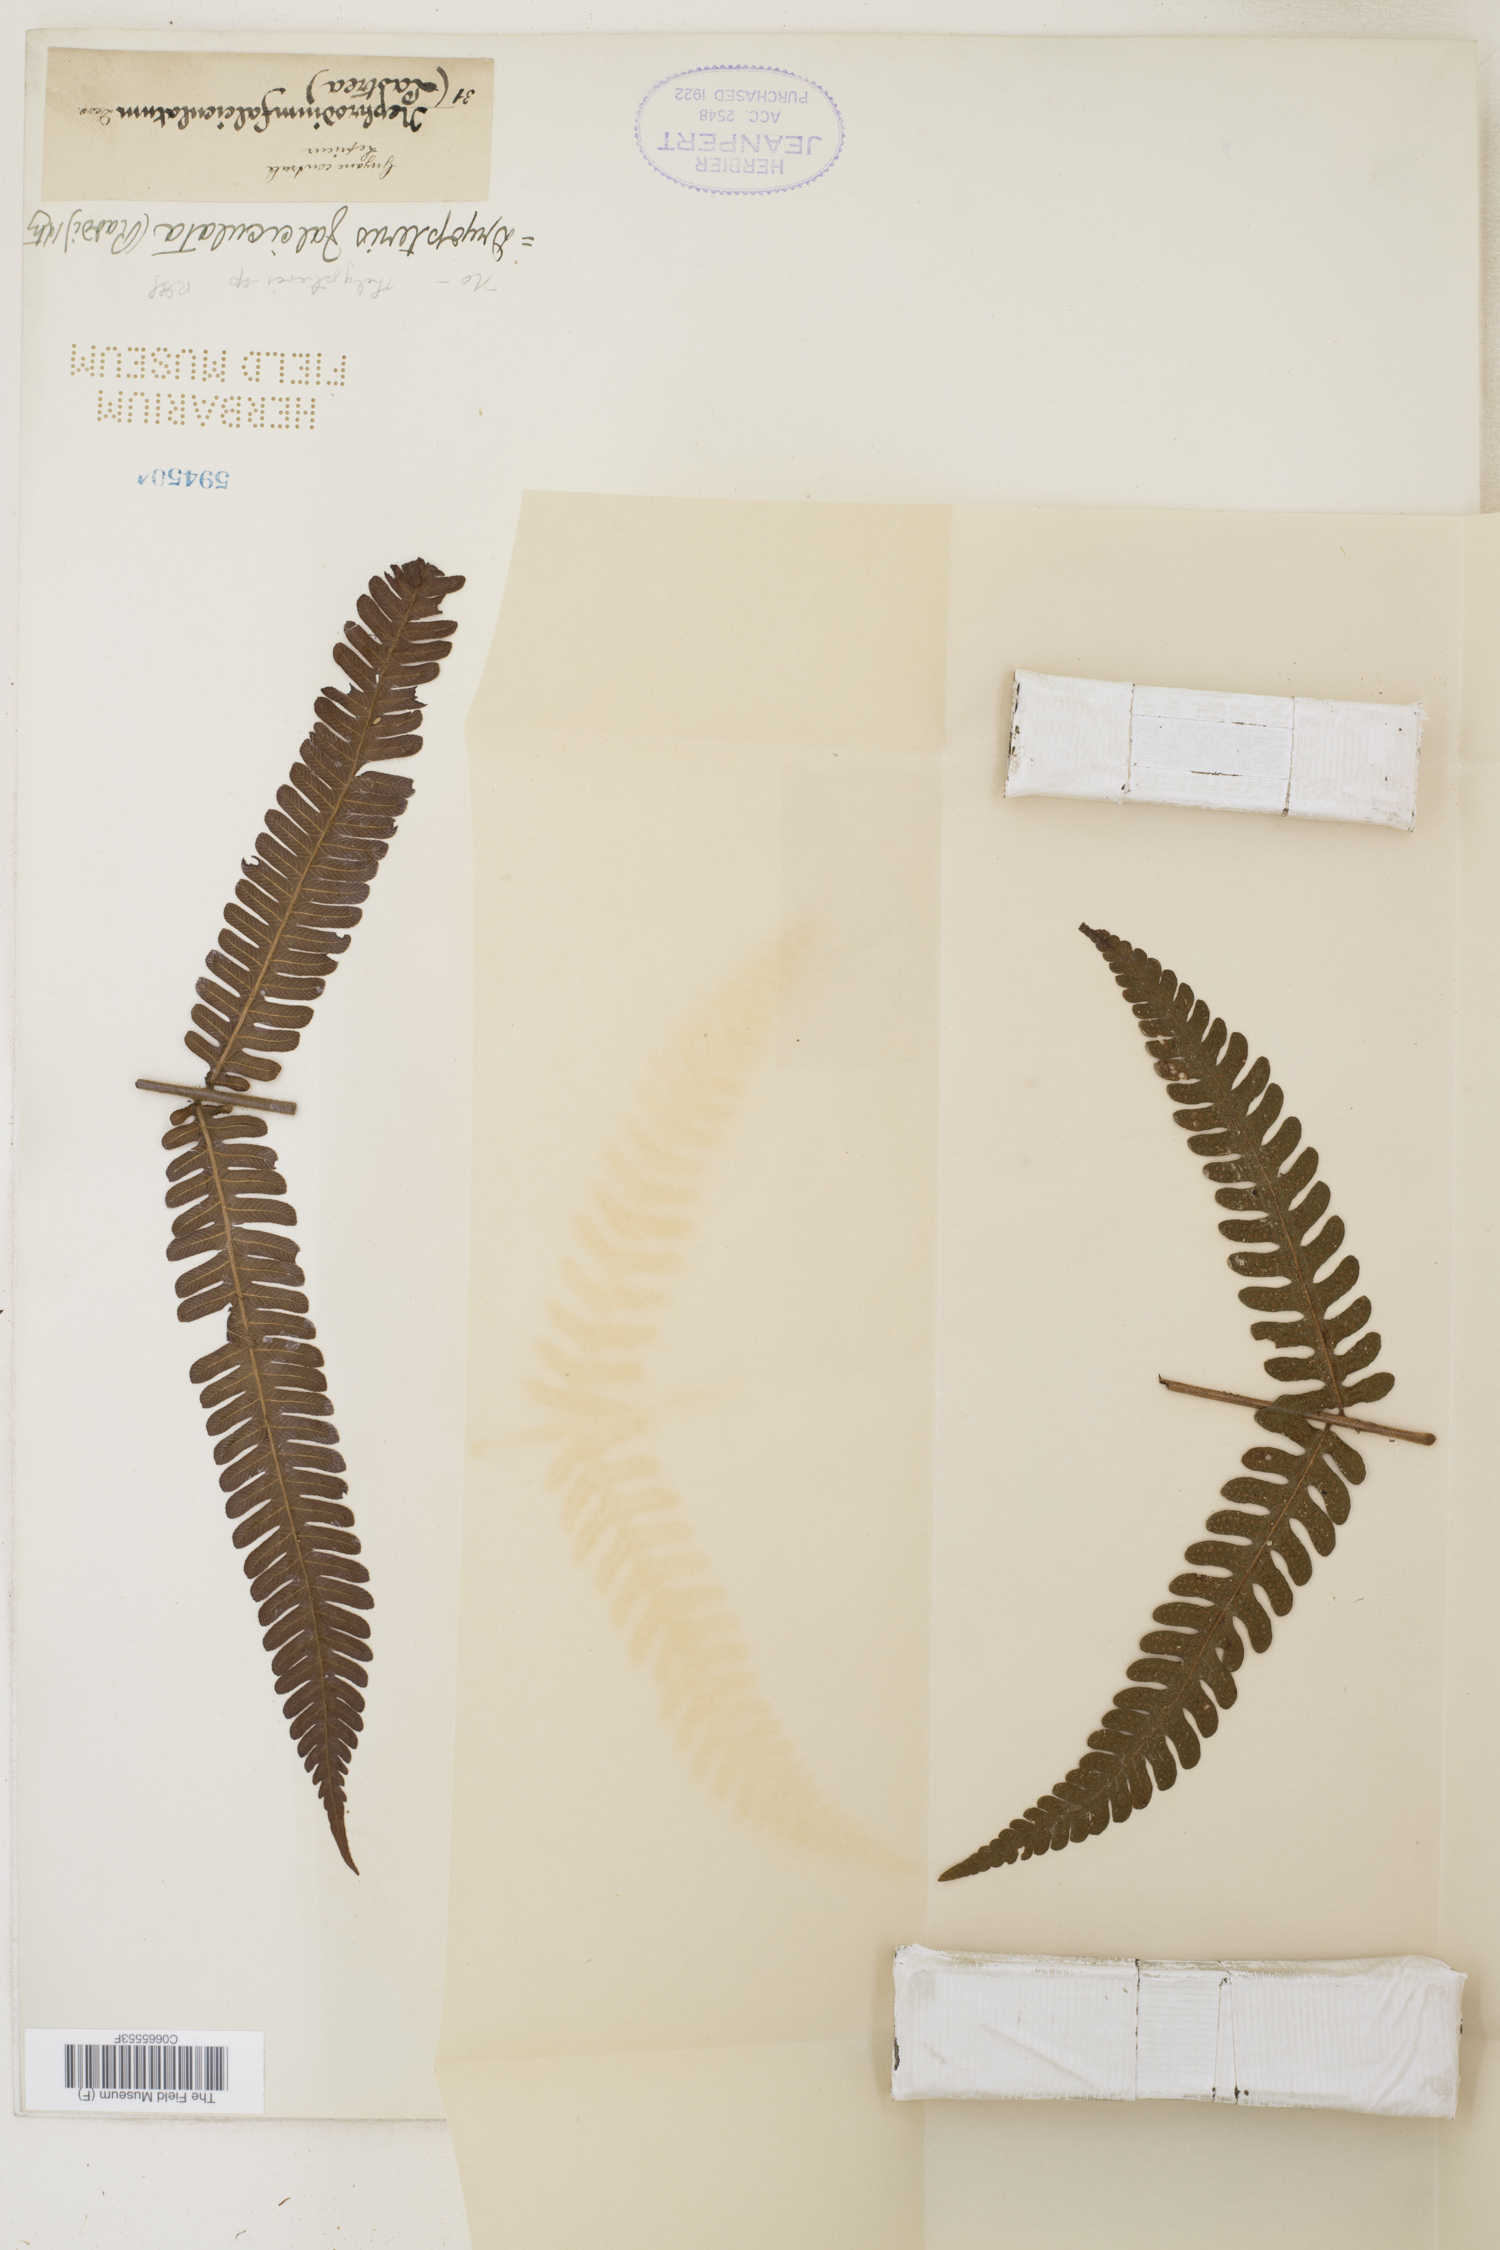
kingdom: Plantae
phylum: Tracheophyta
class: Polypodiopsida
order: Polypodiales
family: Dryopteridaceae
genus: Ctenitis
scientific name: Ctenitis falciculata
